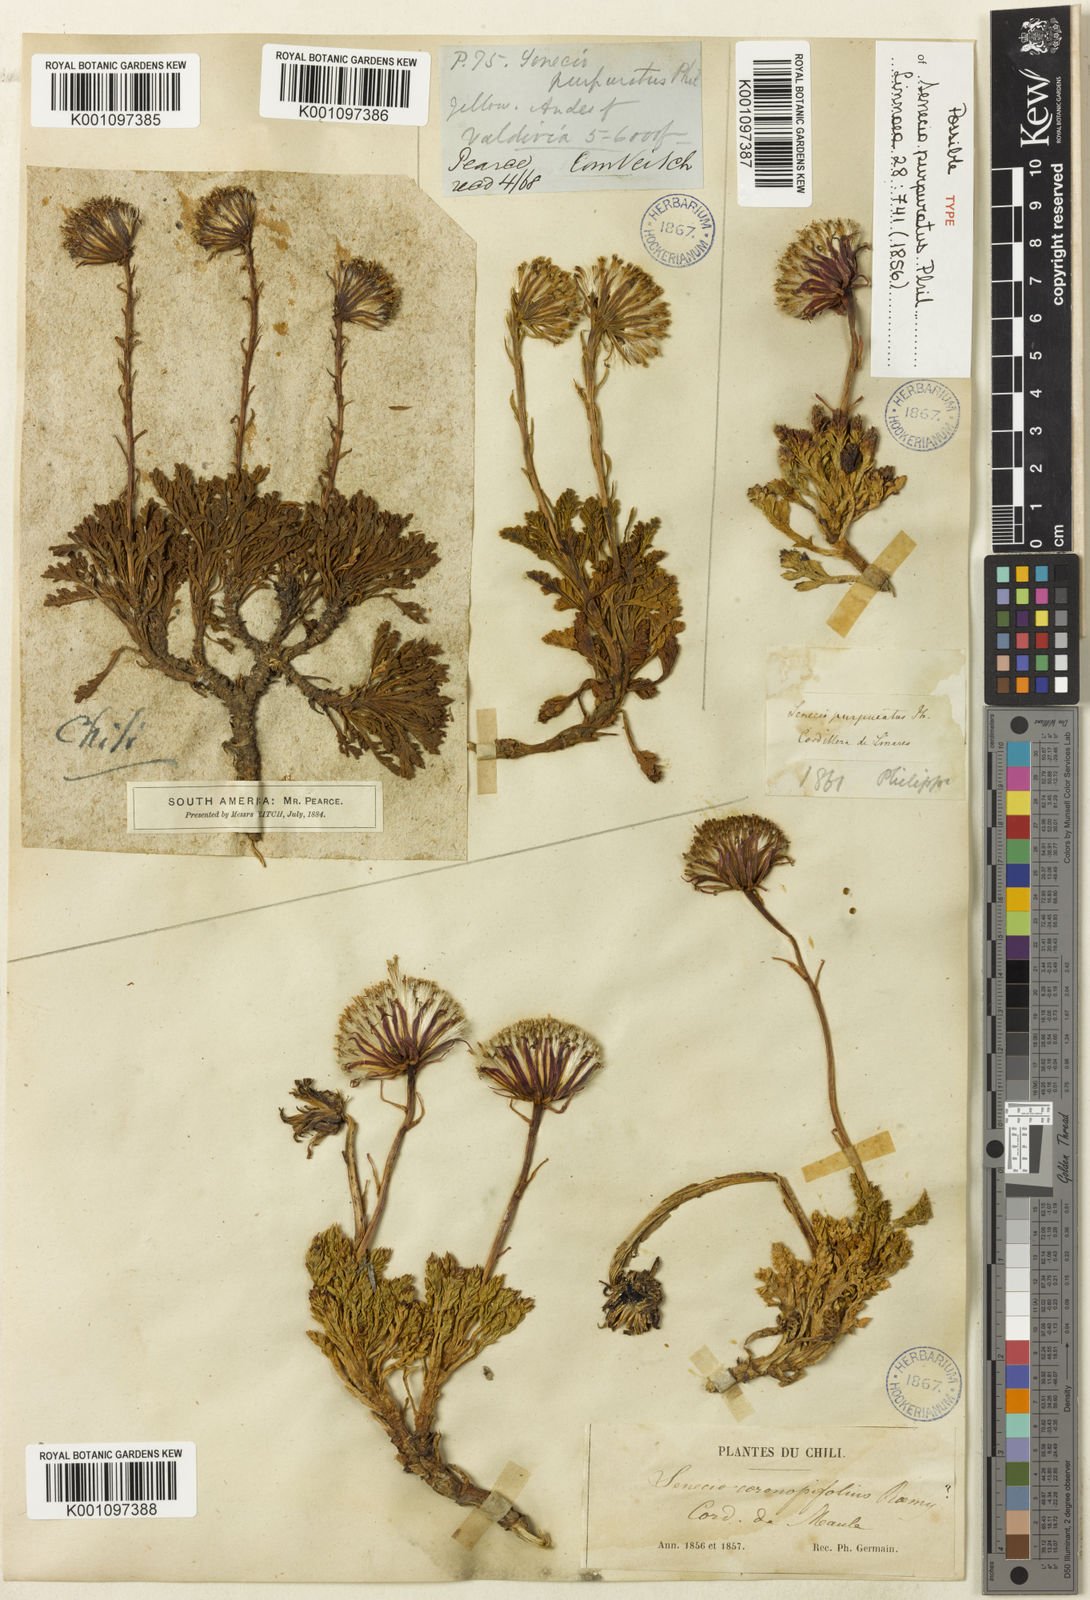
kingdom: Plantae
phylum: Tracheophyta
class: Magnoliopsida
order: Asterales
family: Asteraceae
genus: Senecio
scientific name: Senecio
